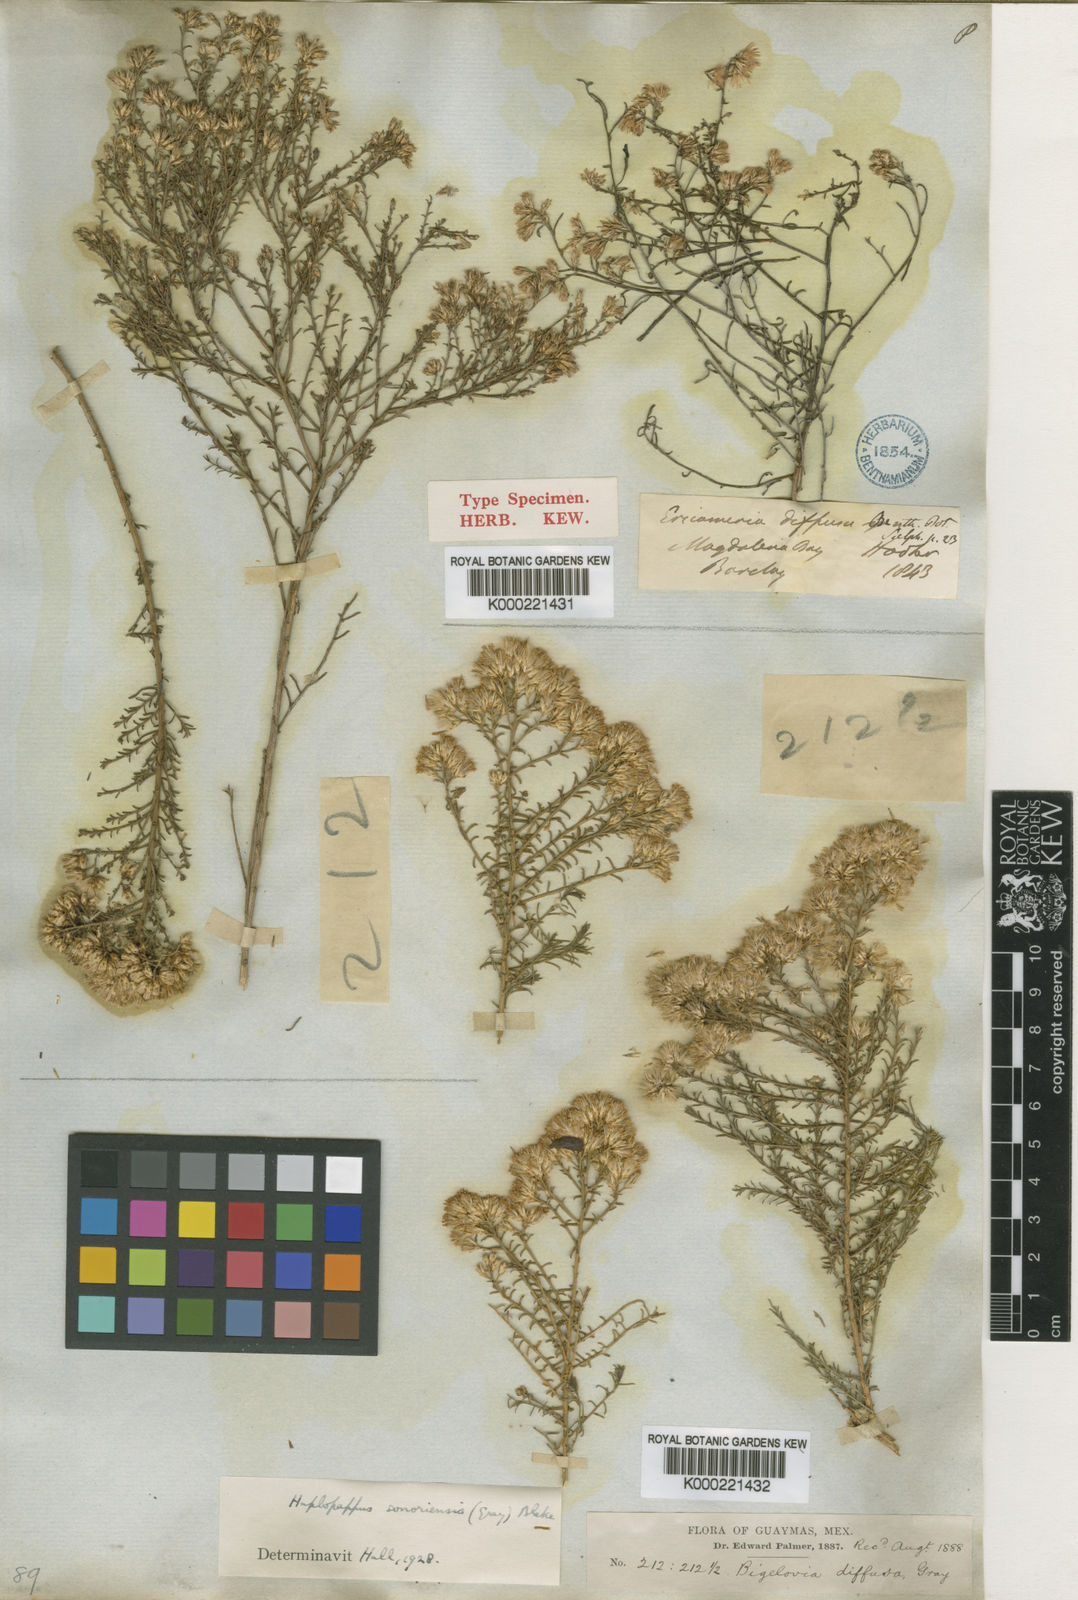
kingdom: Plantae
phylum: Tracheophyta
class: Magnoliopsida
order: Asterales
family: Asteraceae
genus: Haplopappus
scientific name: Haplopappus
